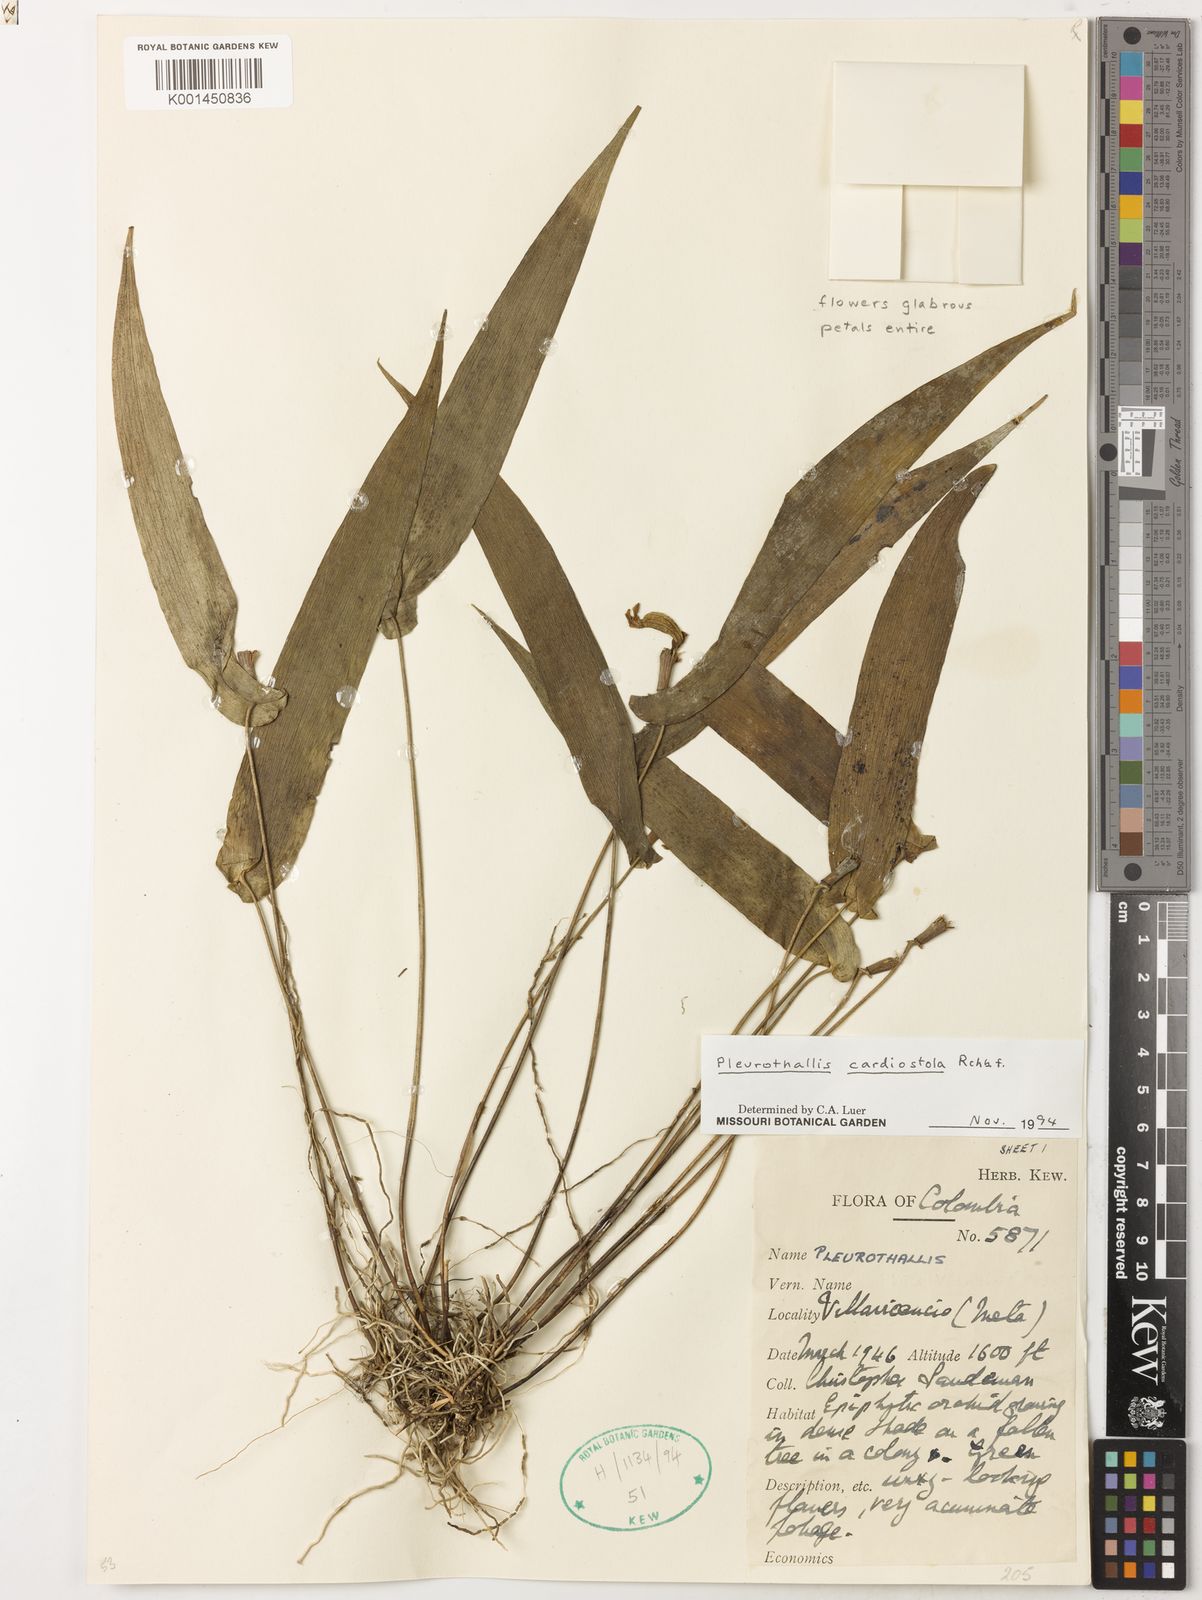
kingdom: Plantae
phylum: Tracheophyta
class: Liliopsida
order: Asparagales
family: Orchidaceae
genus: Pleurothallis
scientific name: Pleurothallis cardiostola
